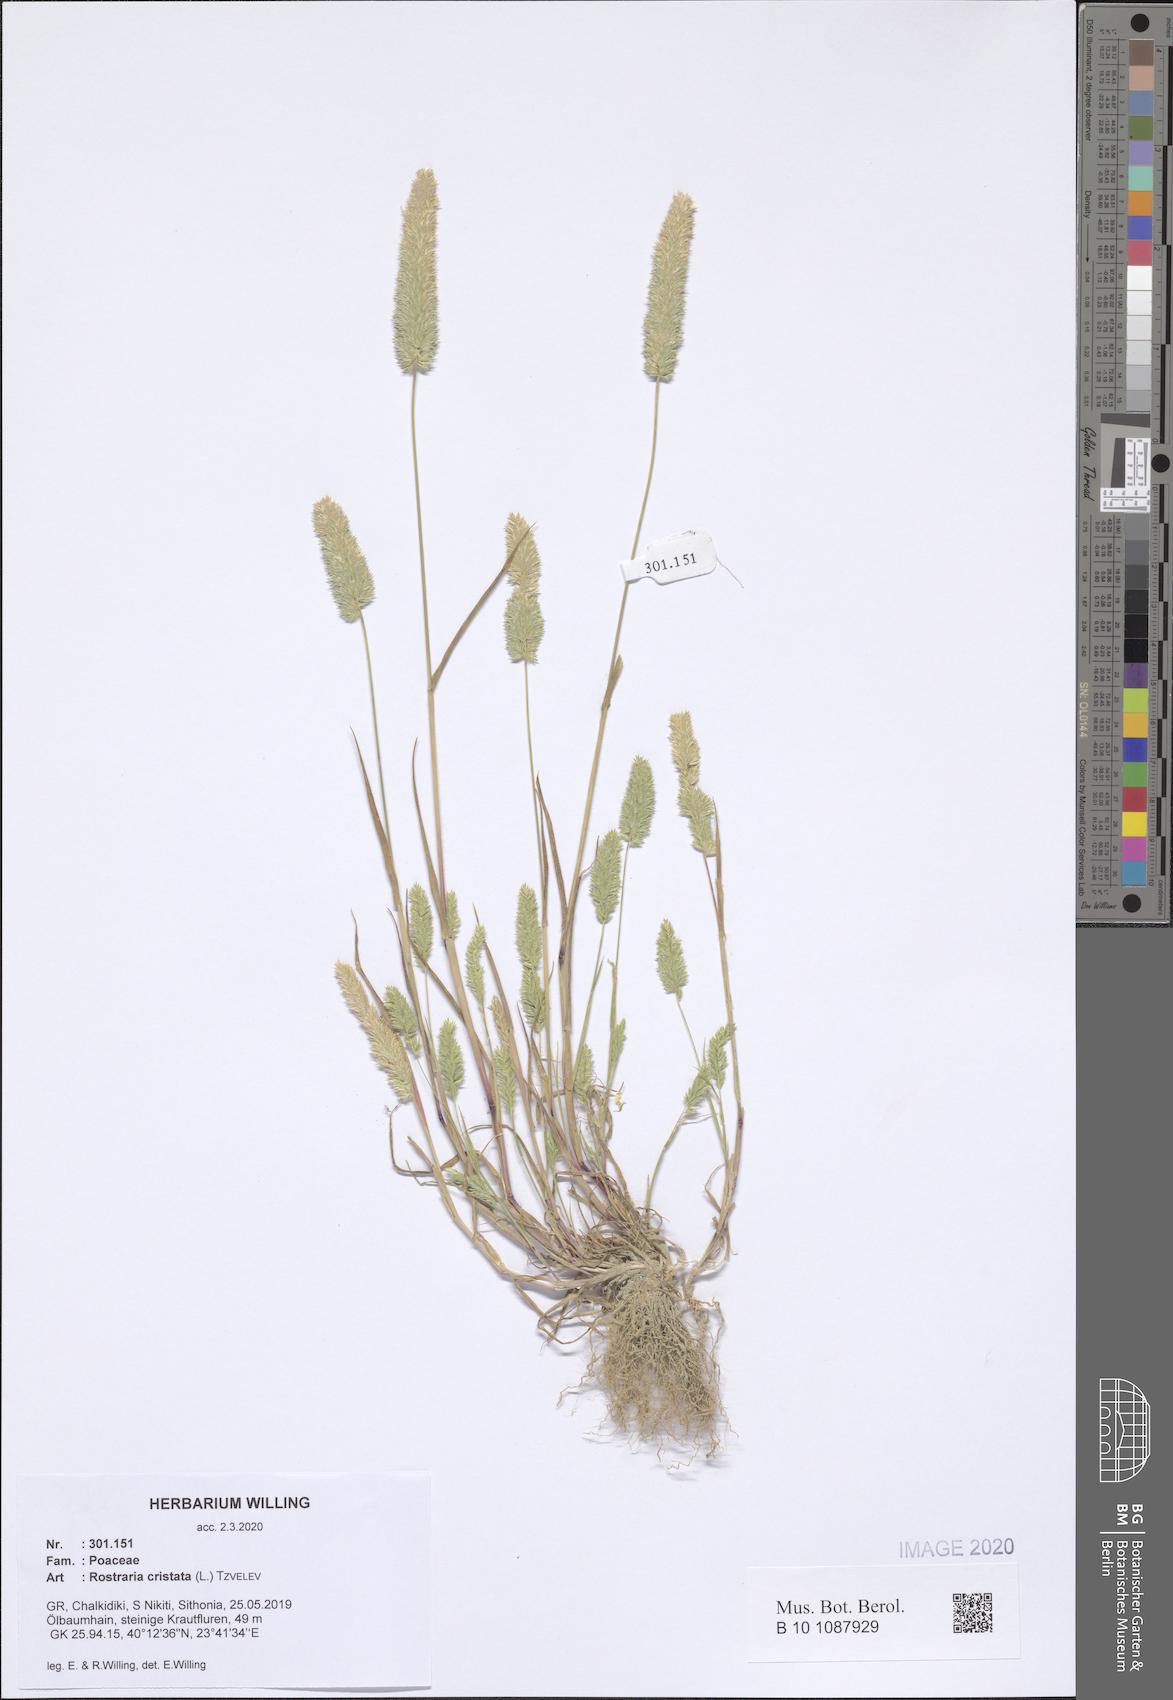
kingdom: Plantae
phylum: Tracheophyta
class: Liliopsida
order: Poales
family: Poaceae
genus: Rostraria
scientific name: Rostraria cristata
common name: Mediterranean hair-grass
